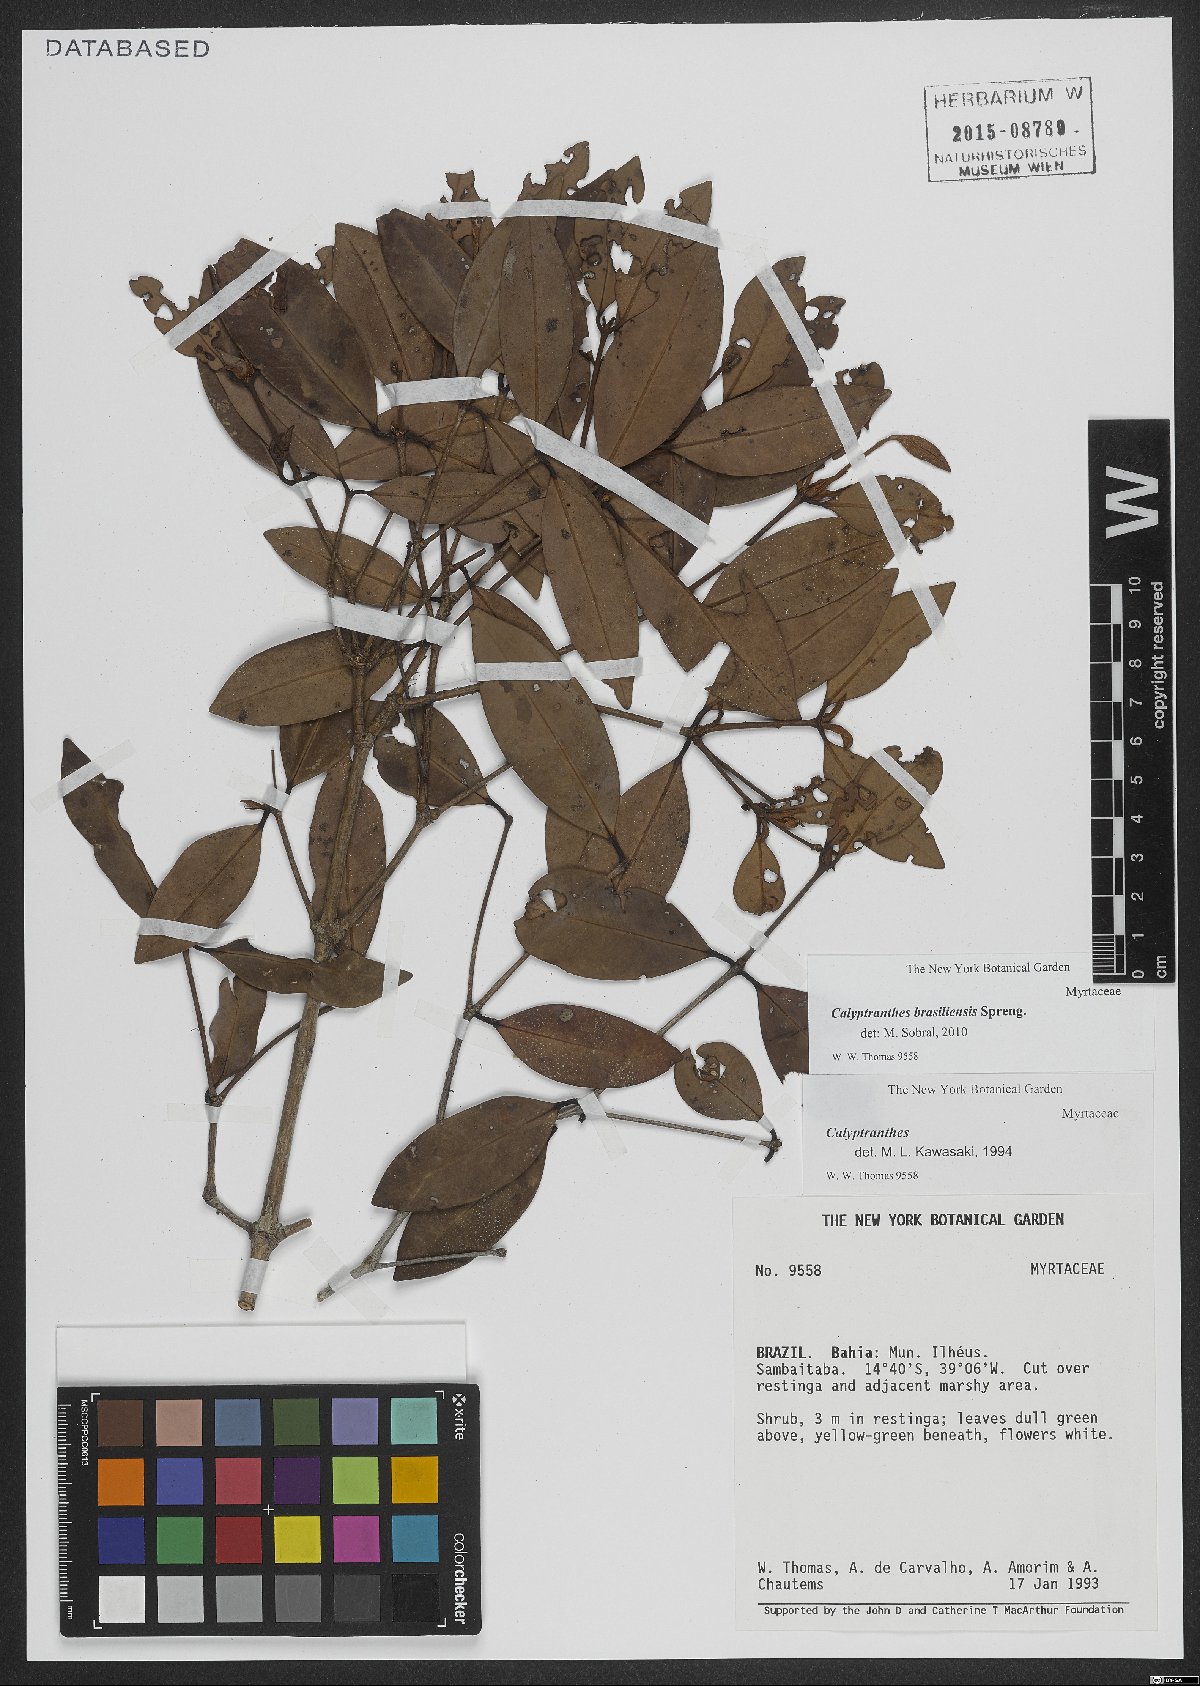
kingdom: Plantae
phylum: Tracheophyta
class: Magnoliopsida
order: Myrtales
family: Myrtaceae
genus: Myrcia
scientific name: Myrcia neobrasiliensis
